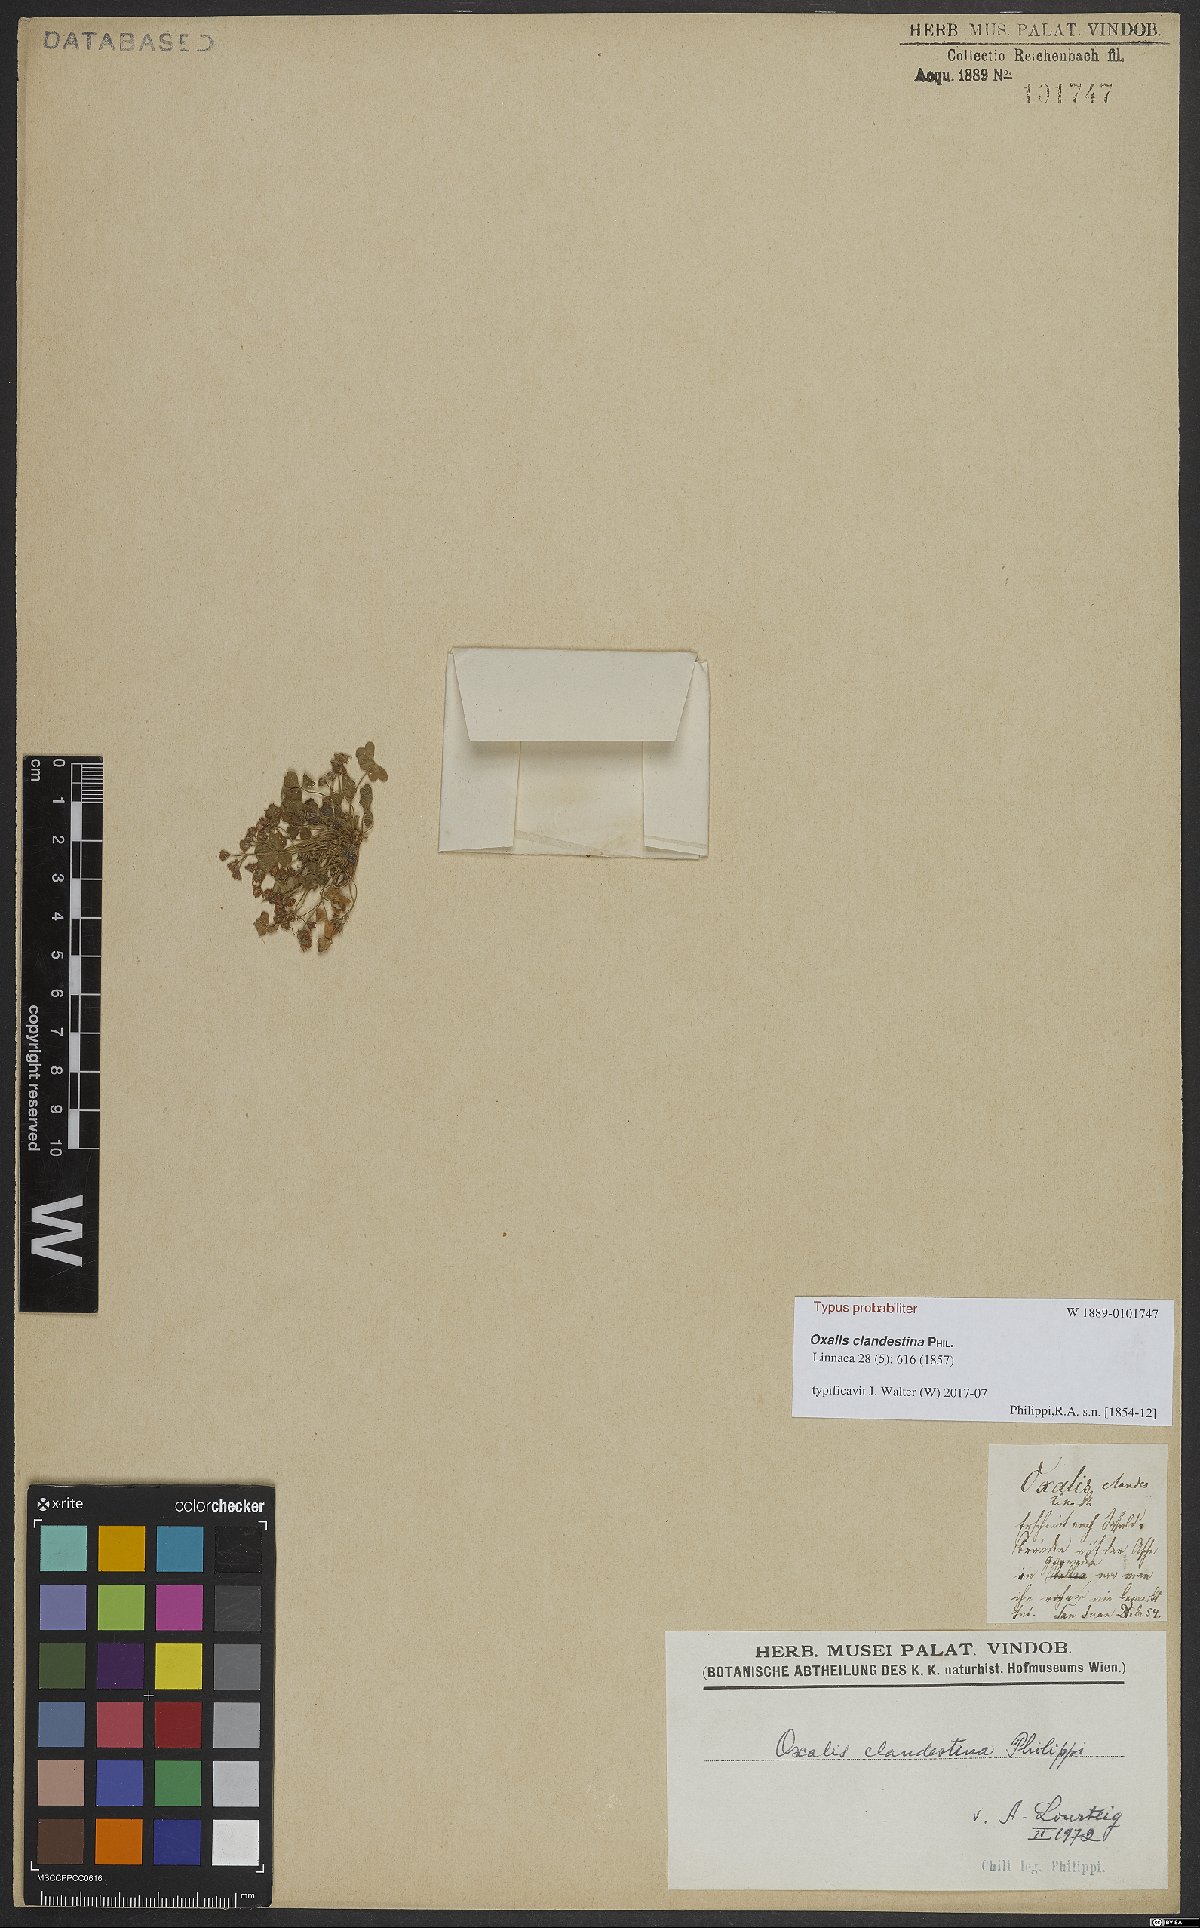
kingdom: Plantae
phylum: Tracheophyta
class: Magnoliopsida
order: Oxalidales
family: Oxalidaceae
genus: Oxalis
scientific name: Oxalis clandestina
